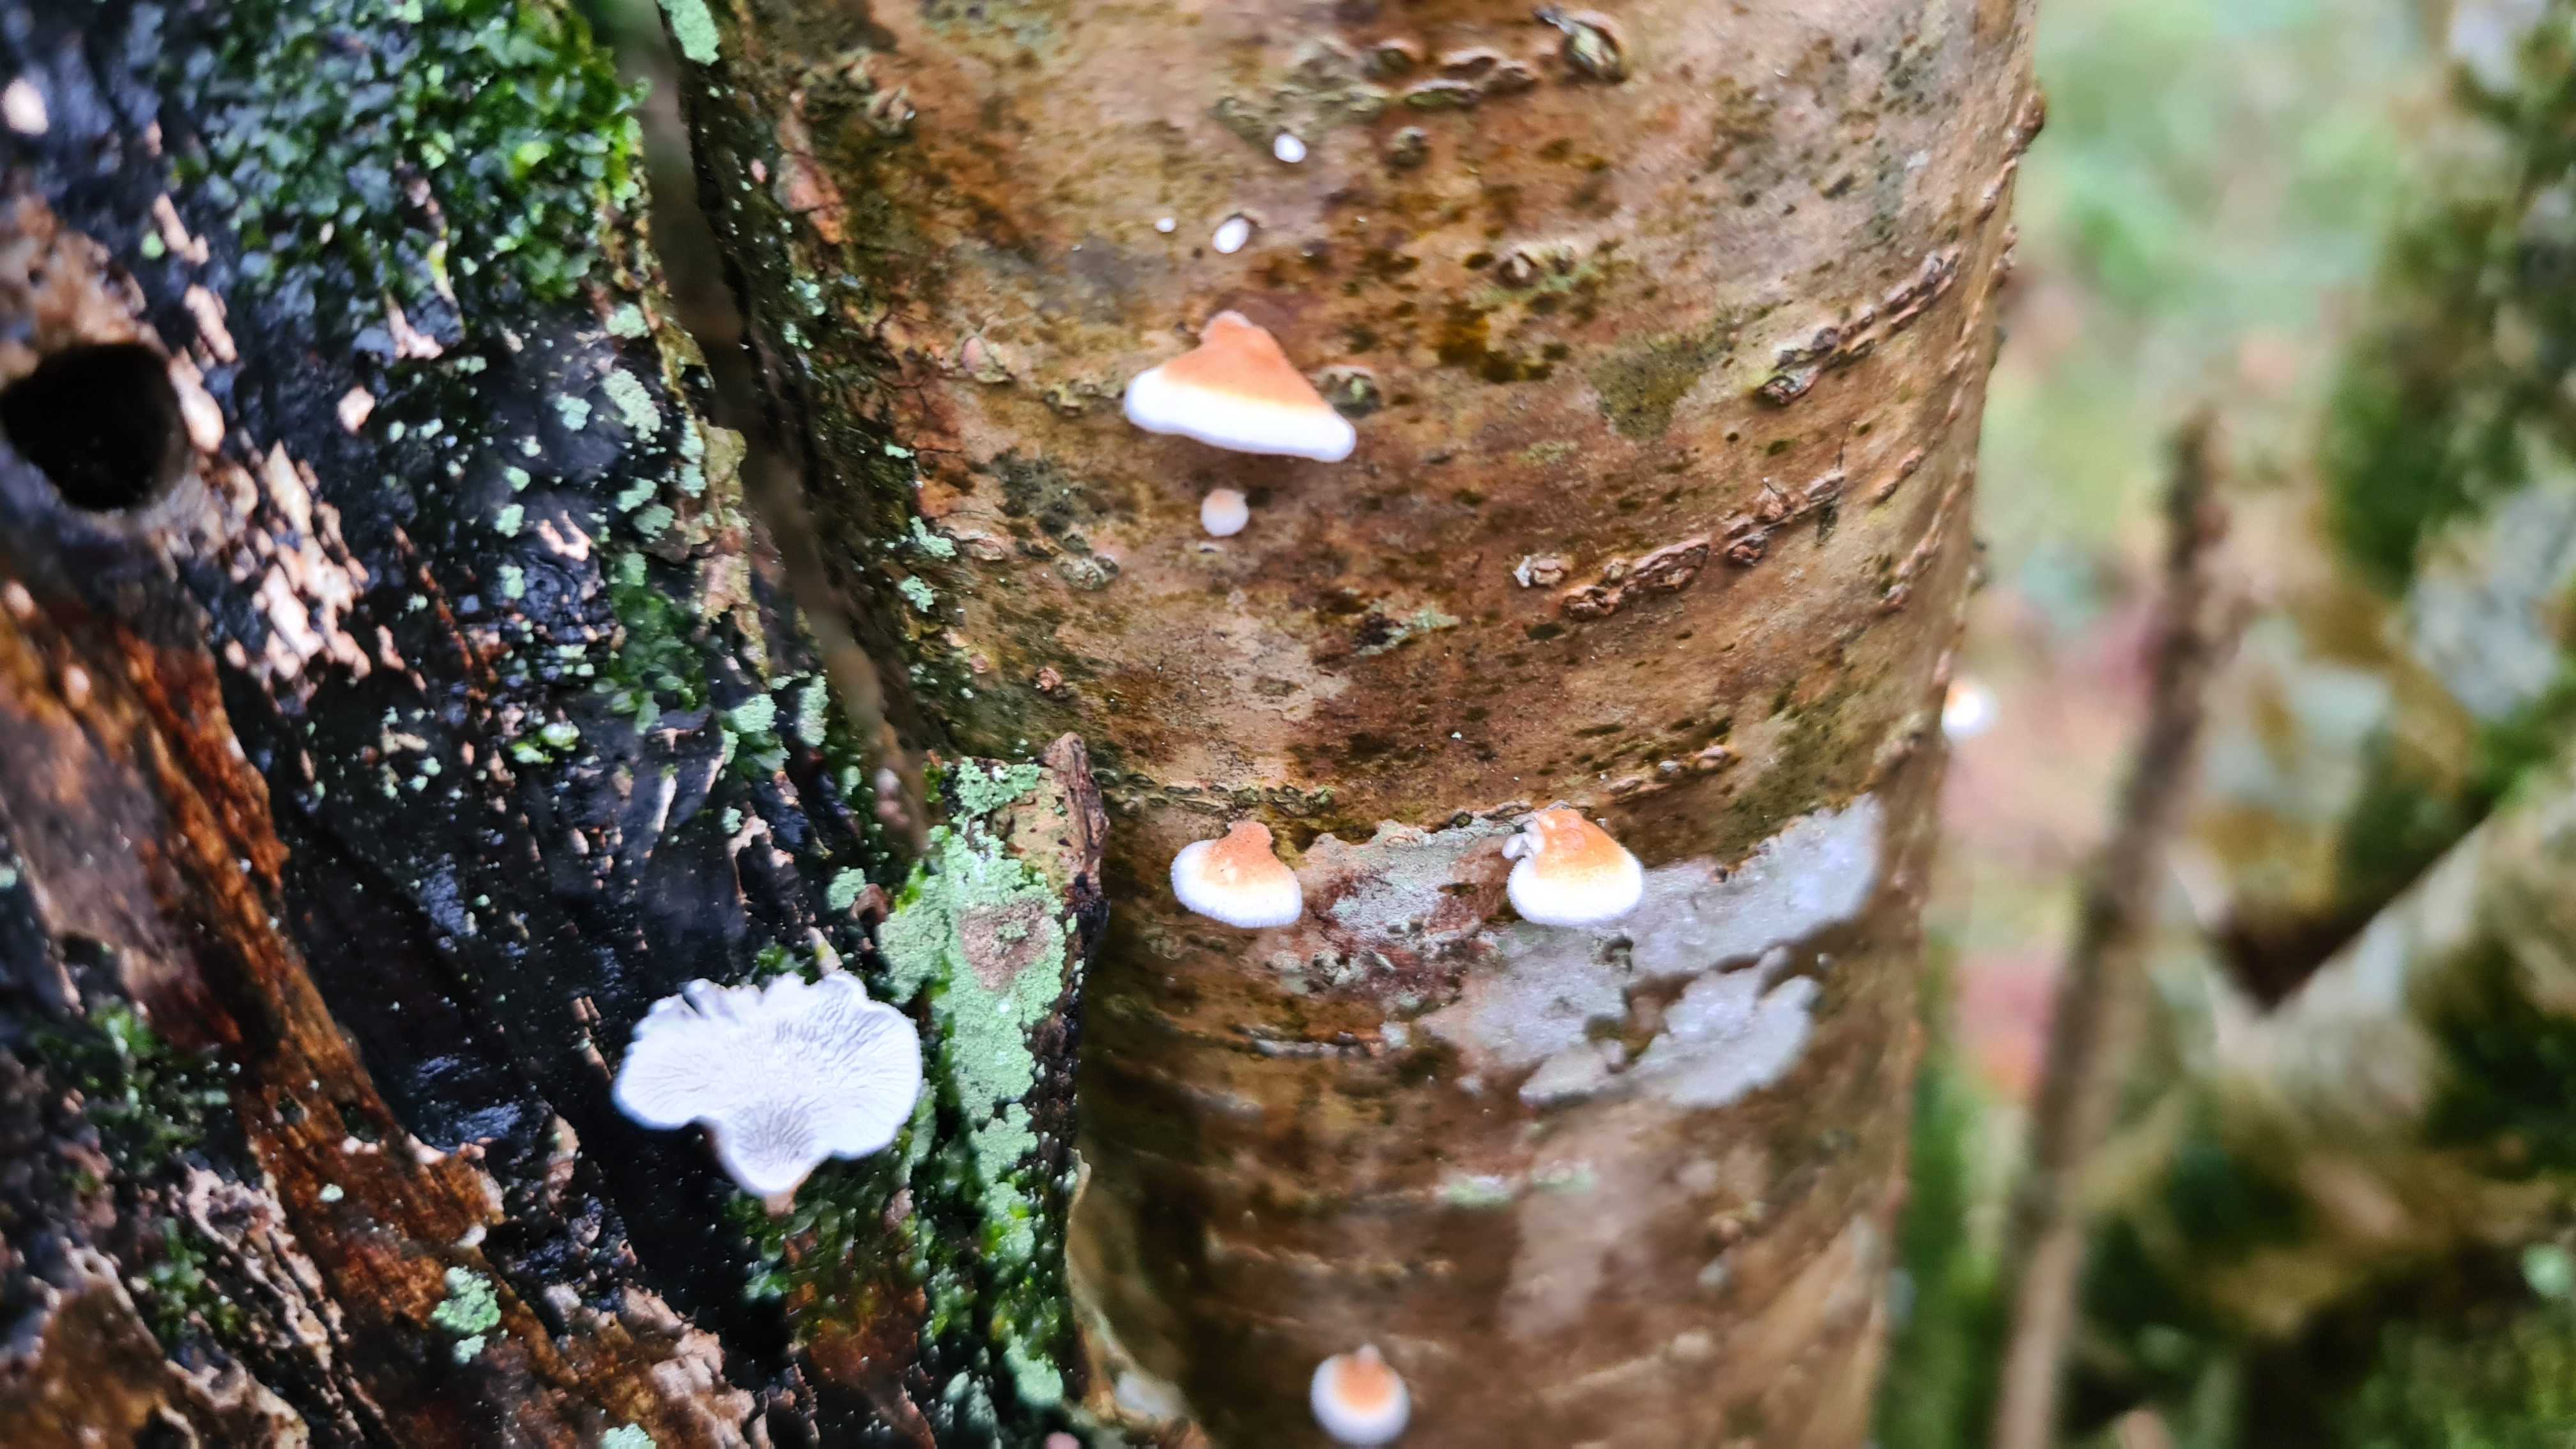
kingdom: Fungi
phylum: Basidiomycota
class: Agaricomycetes
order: Amylocorticiales
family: Amylocorticiaceae
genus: Plicaturopsis
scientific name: Plicaturopsis crispa
